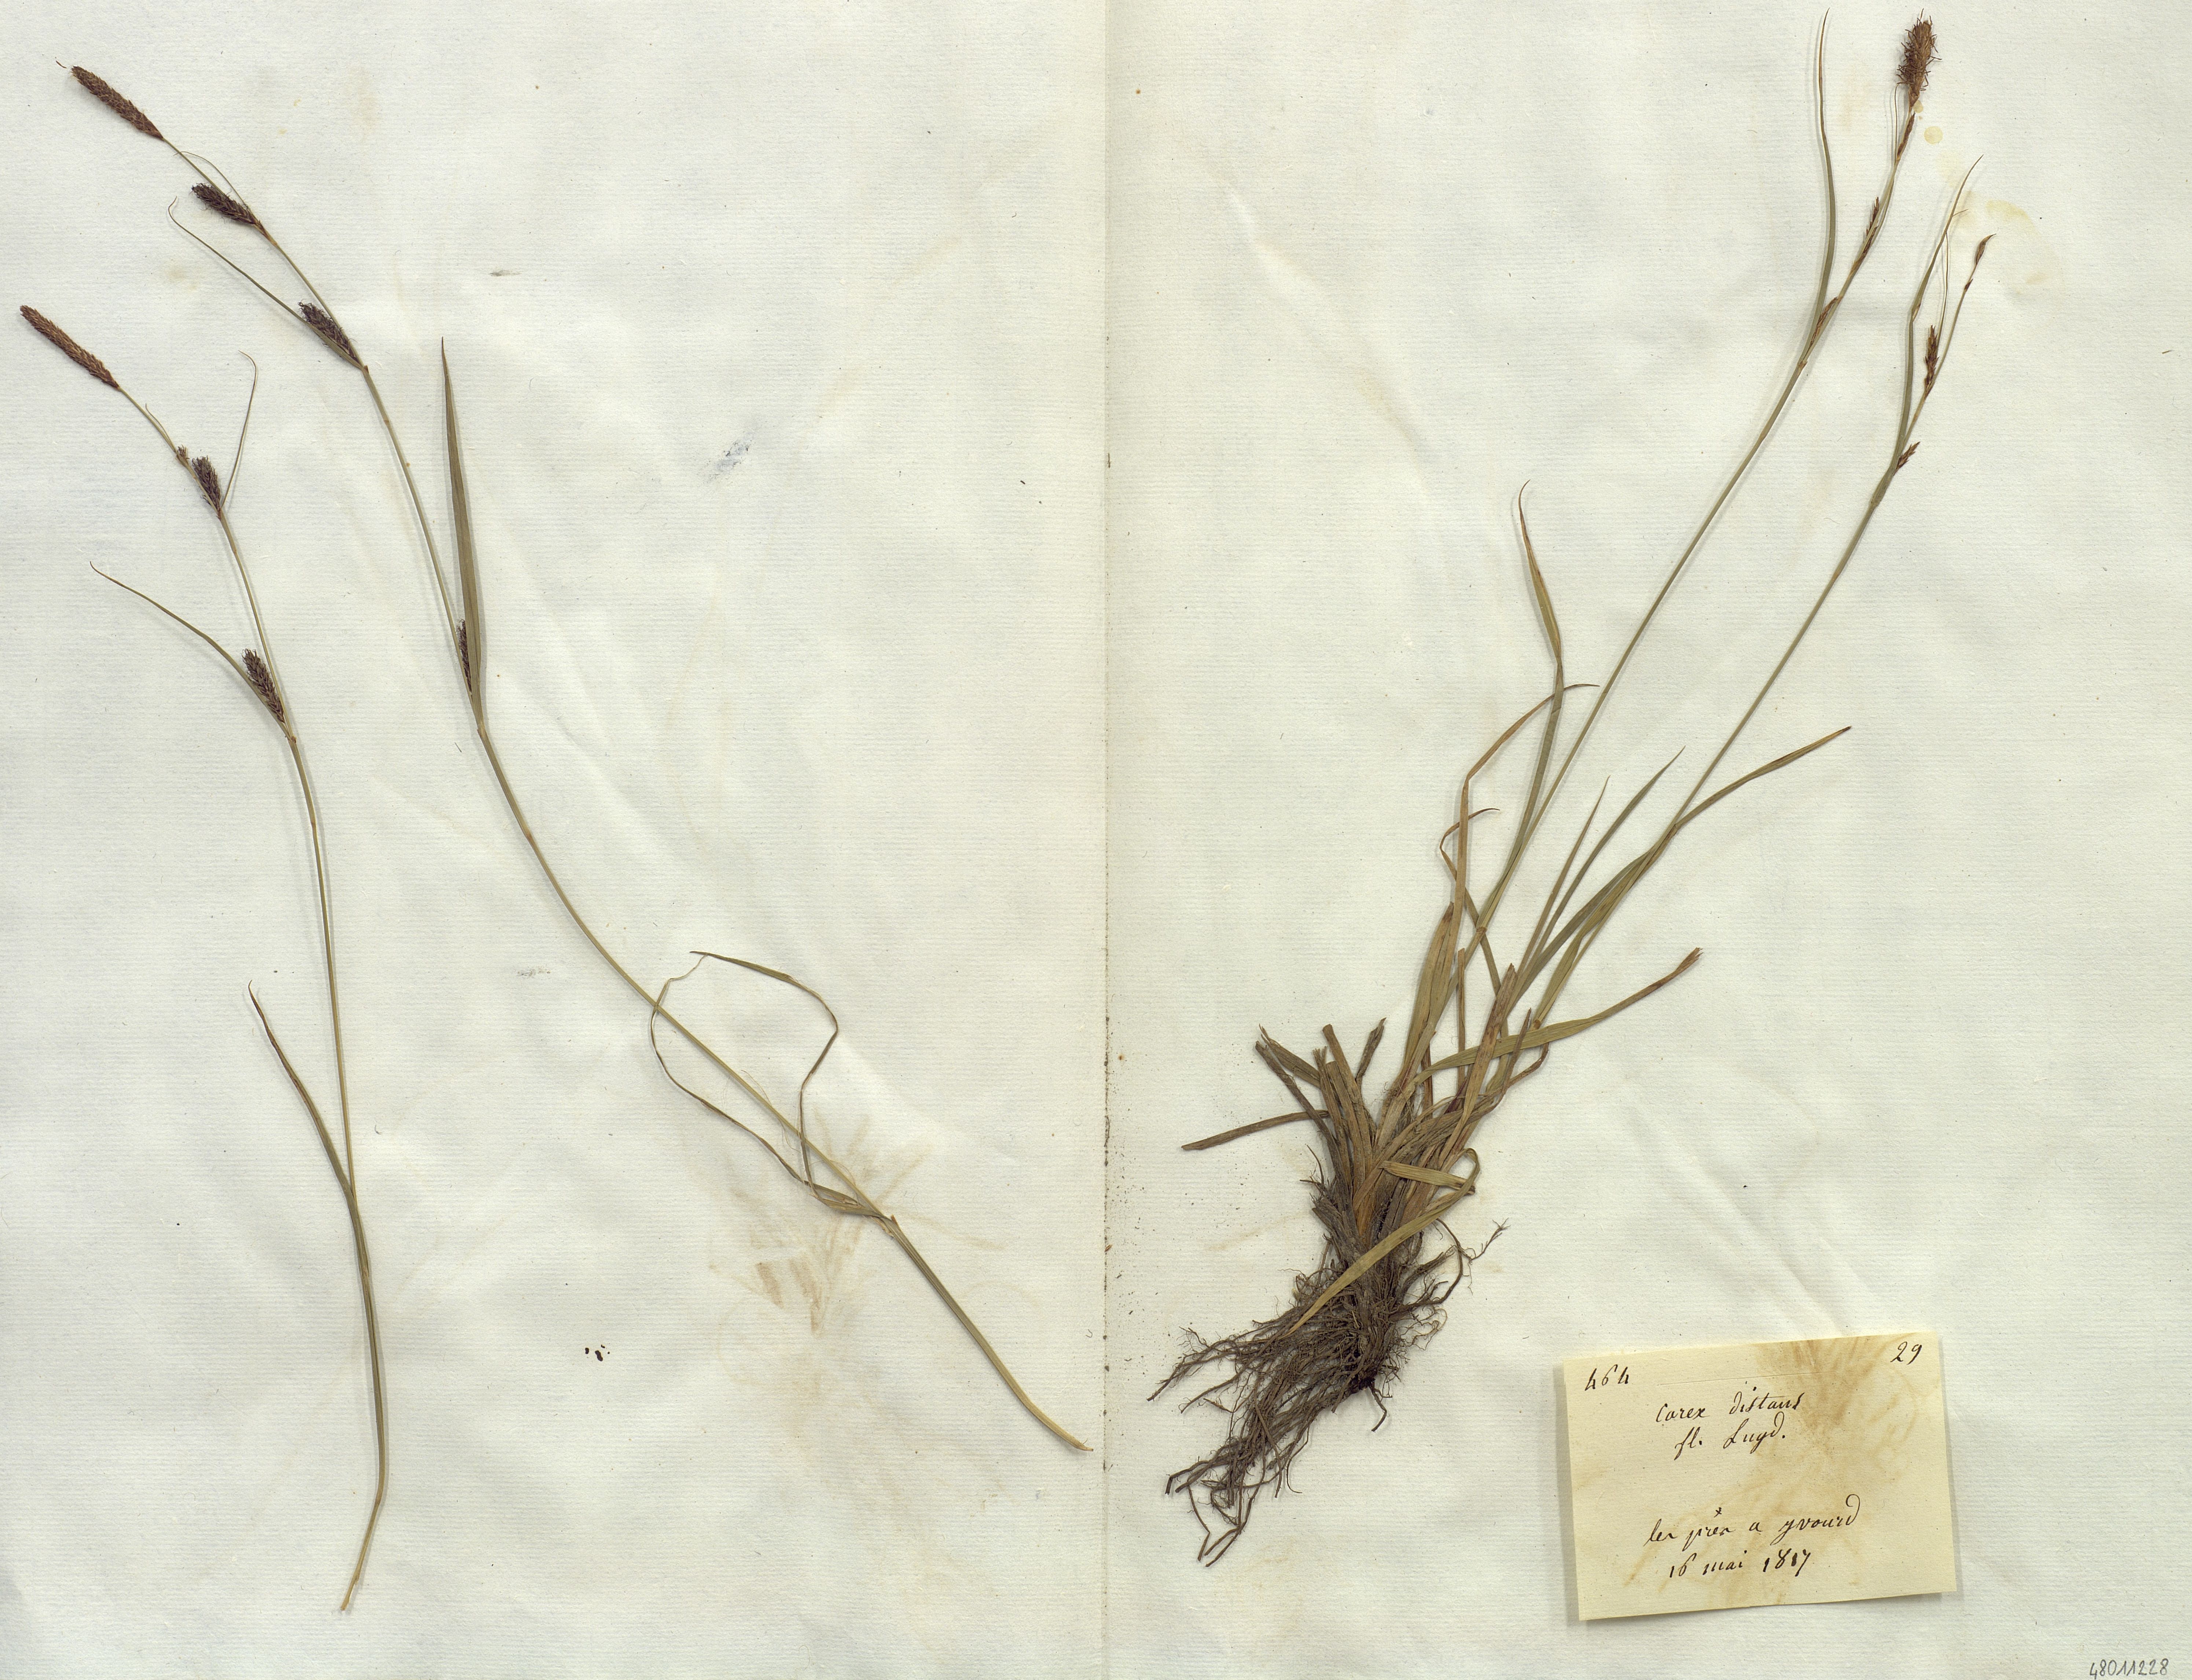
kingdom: Plantae
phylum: Tracheophyta
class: Liliopsida
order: Poales
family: Cyperaceae
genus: Carex
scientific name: Carex distans
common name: Distant sedge
